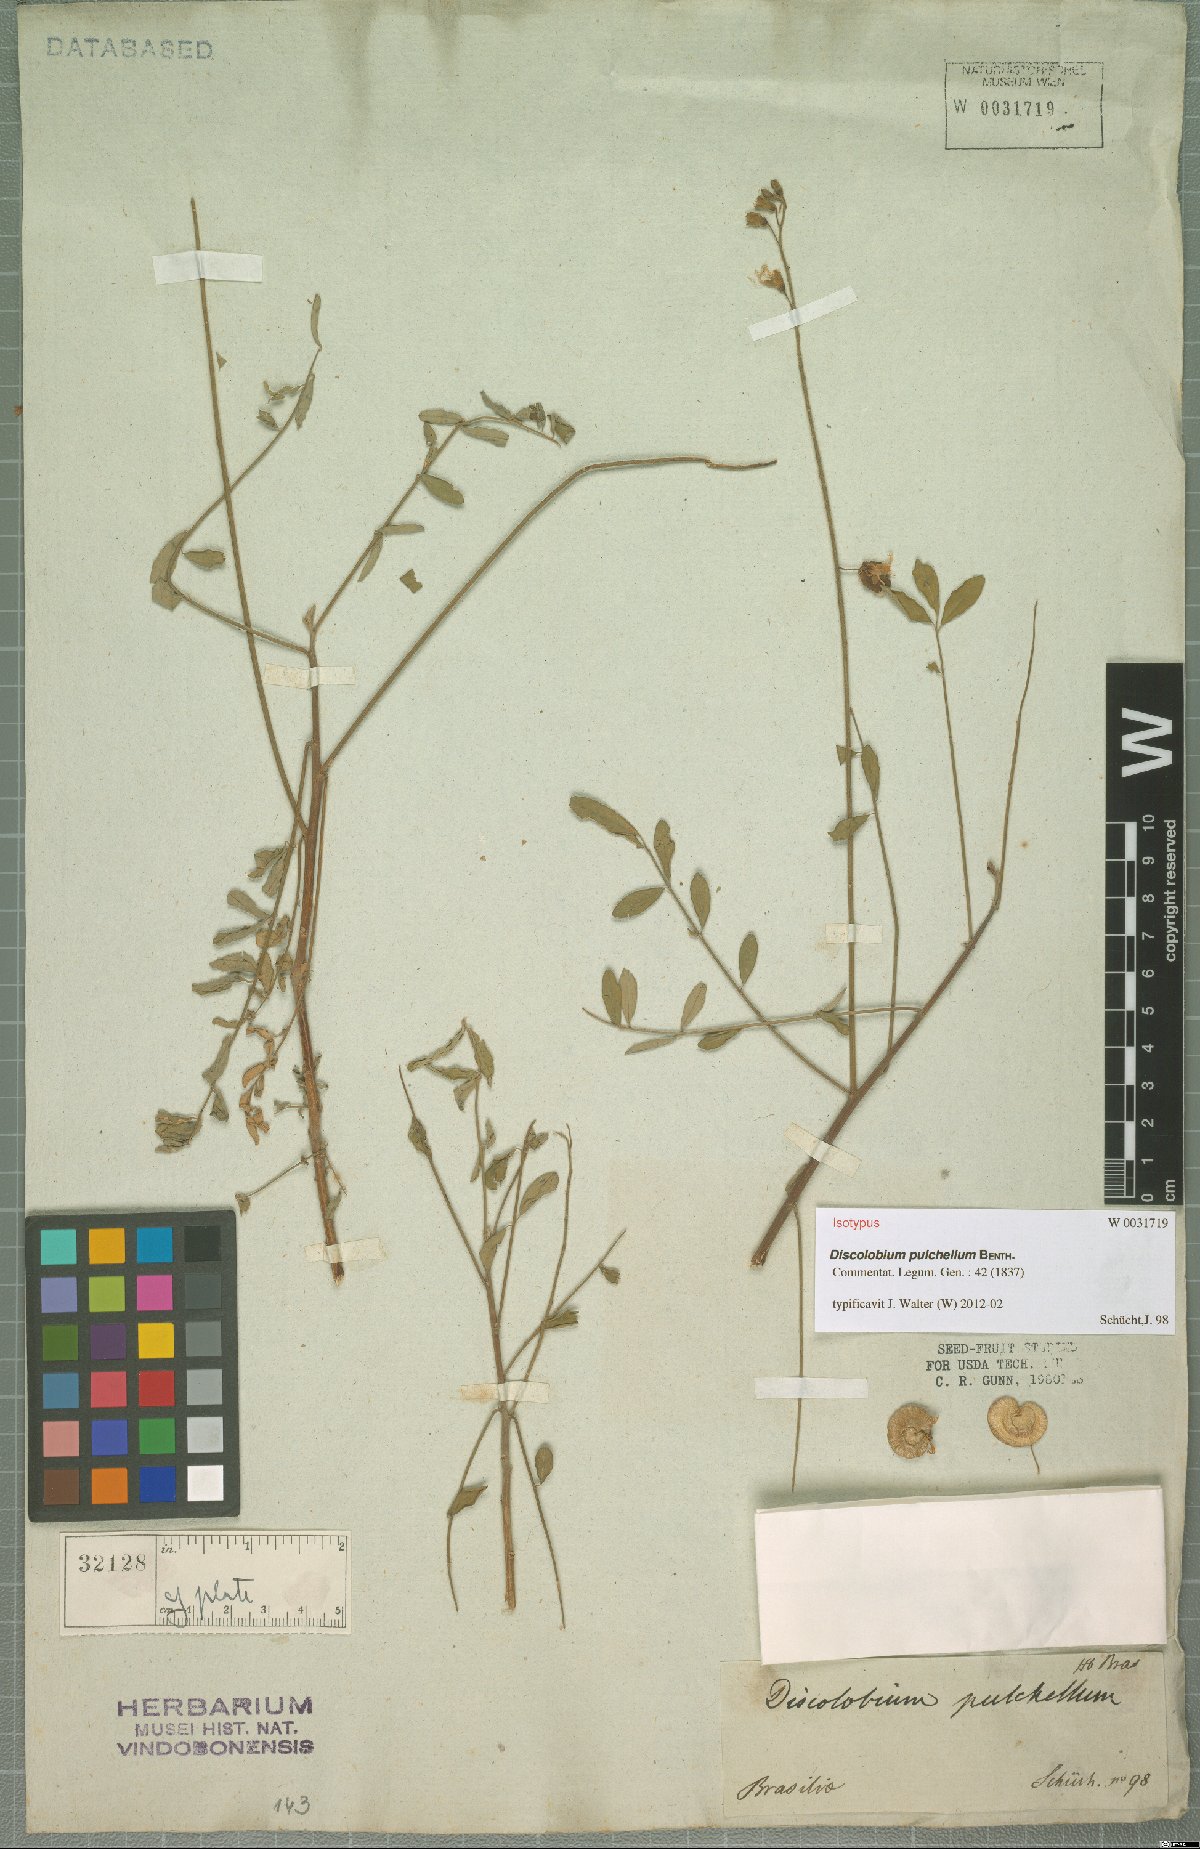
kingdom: Plantae
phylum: Tracheophyta
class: Magnoliopsida
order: Fabales
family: Fabaceae
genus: Discolobium
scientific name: Discolobium pulchellum
